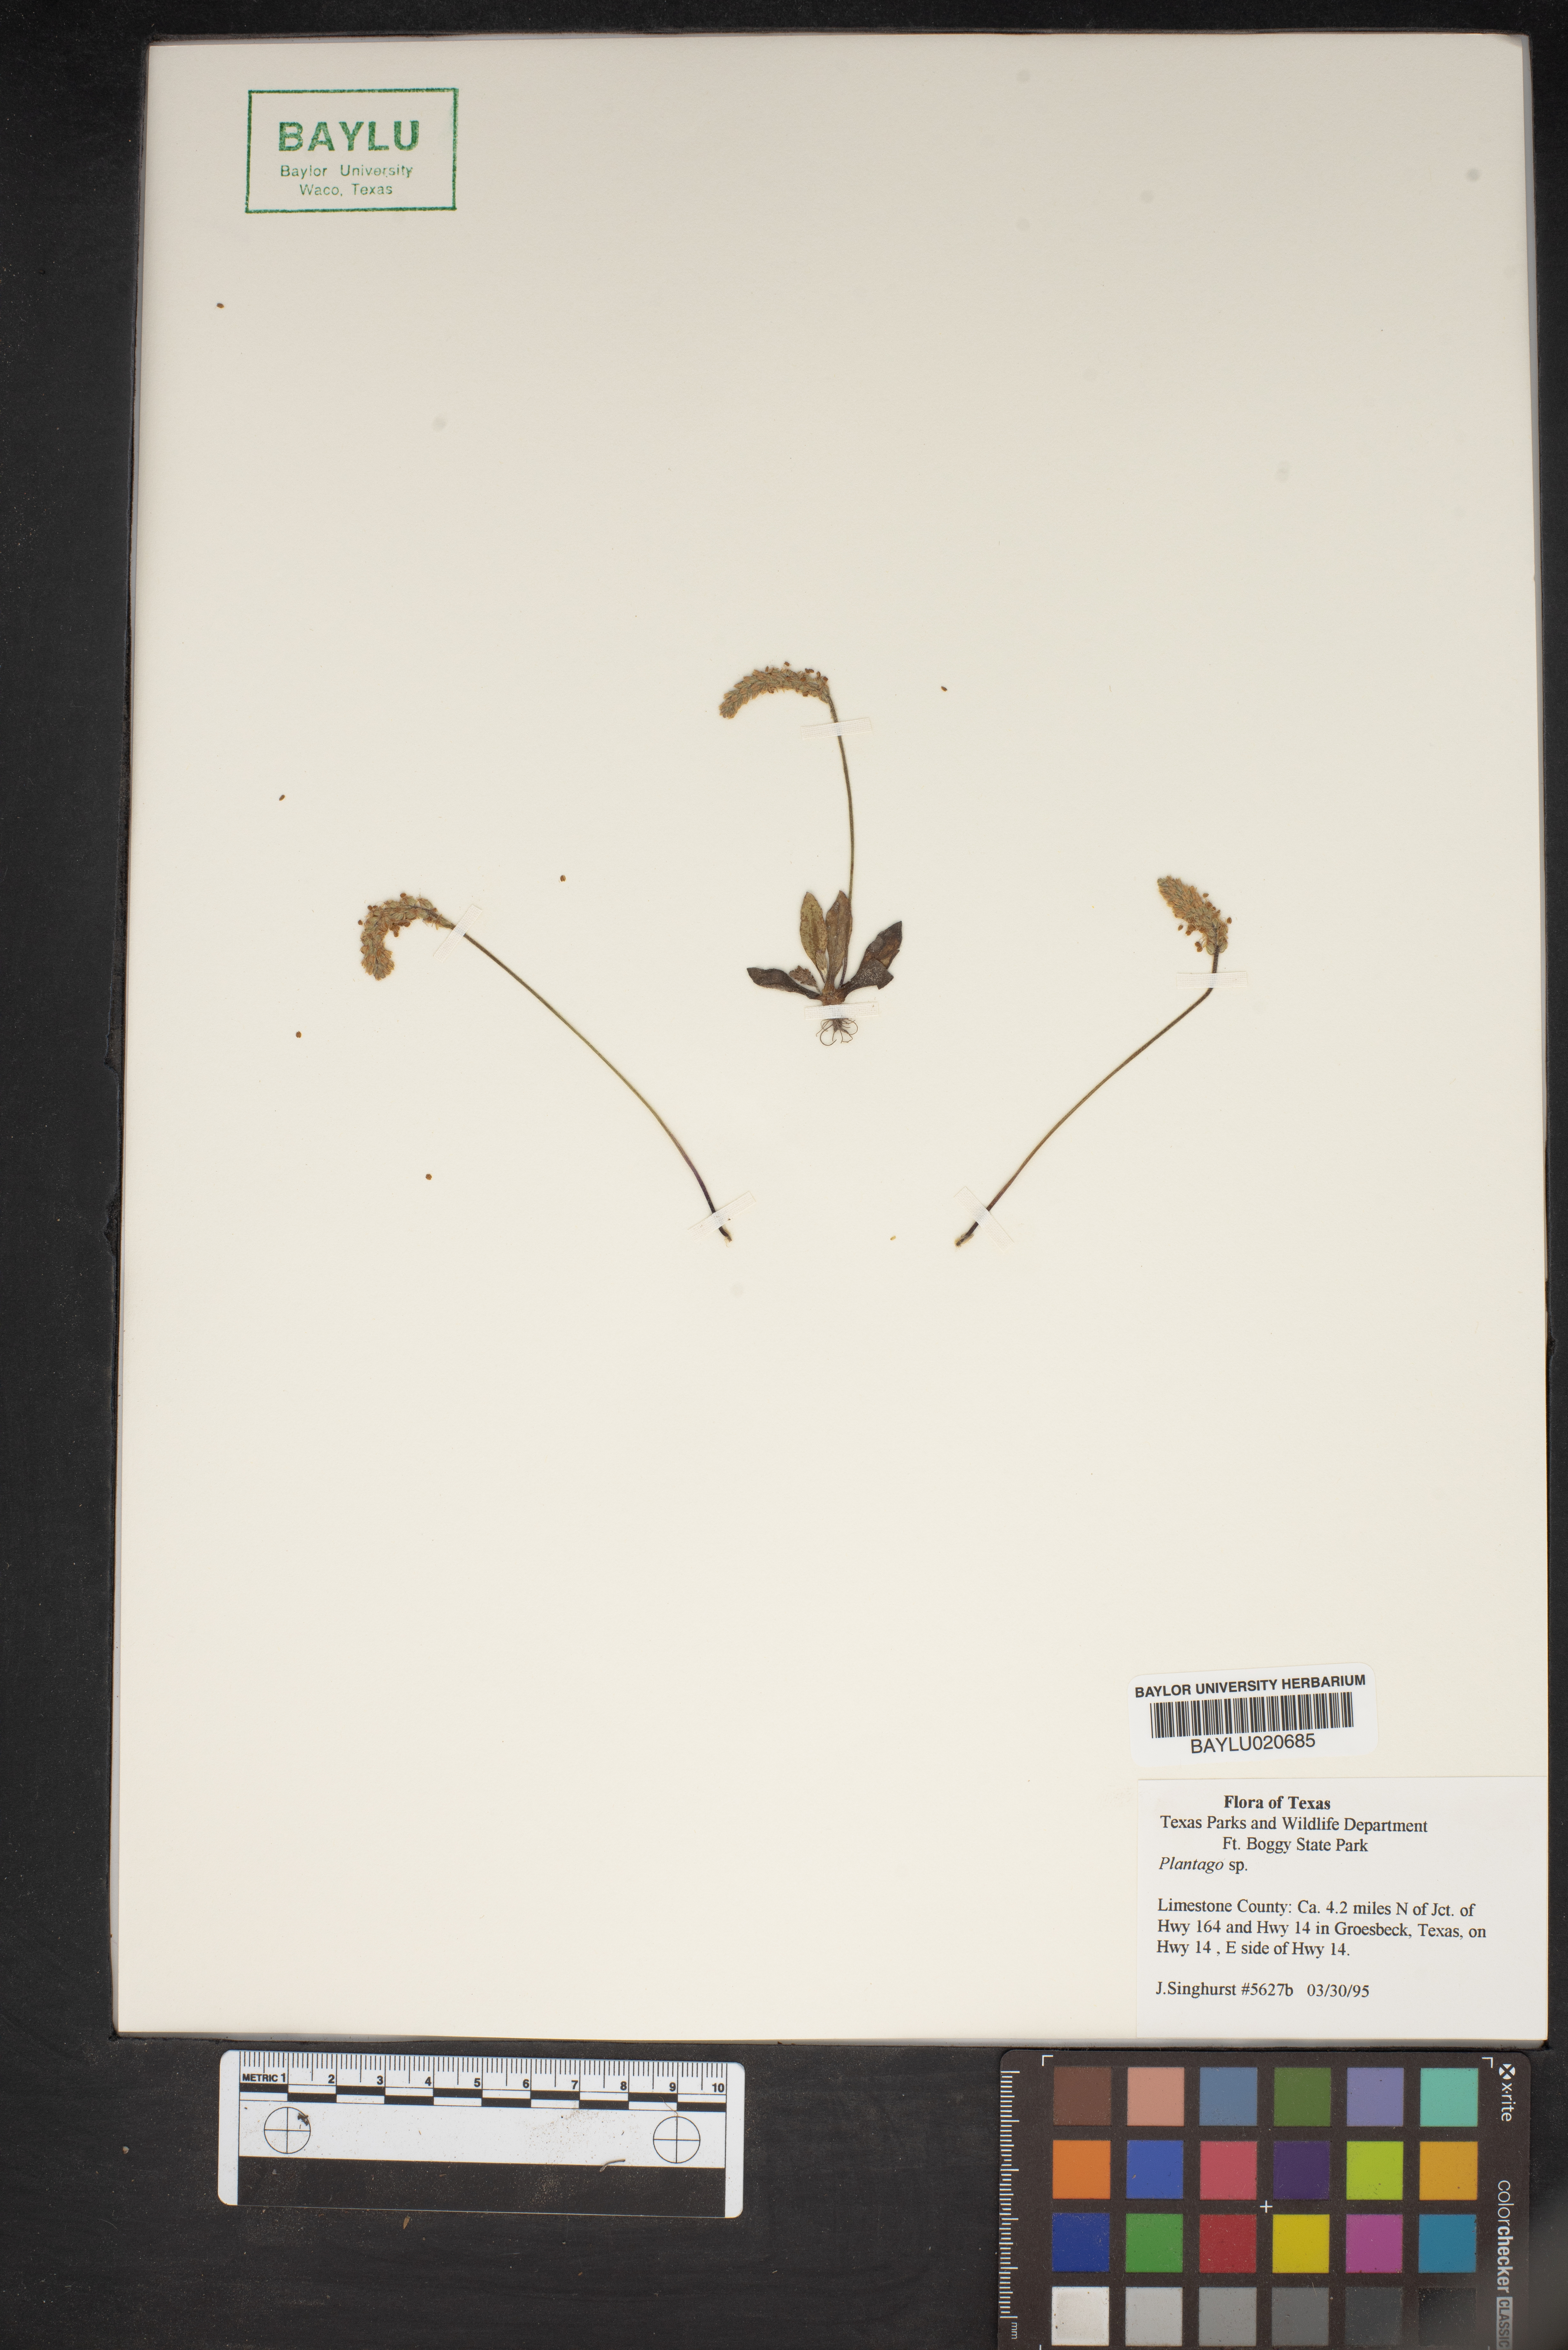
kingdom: Plantae
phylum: Tracheophyta
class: Magnoliopsida
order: Lamiales
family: Plantaginaceae
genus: Plantago
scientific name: Plantago
